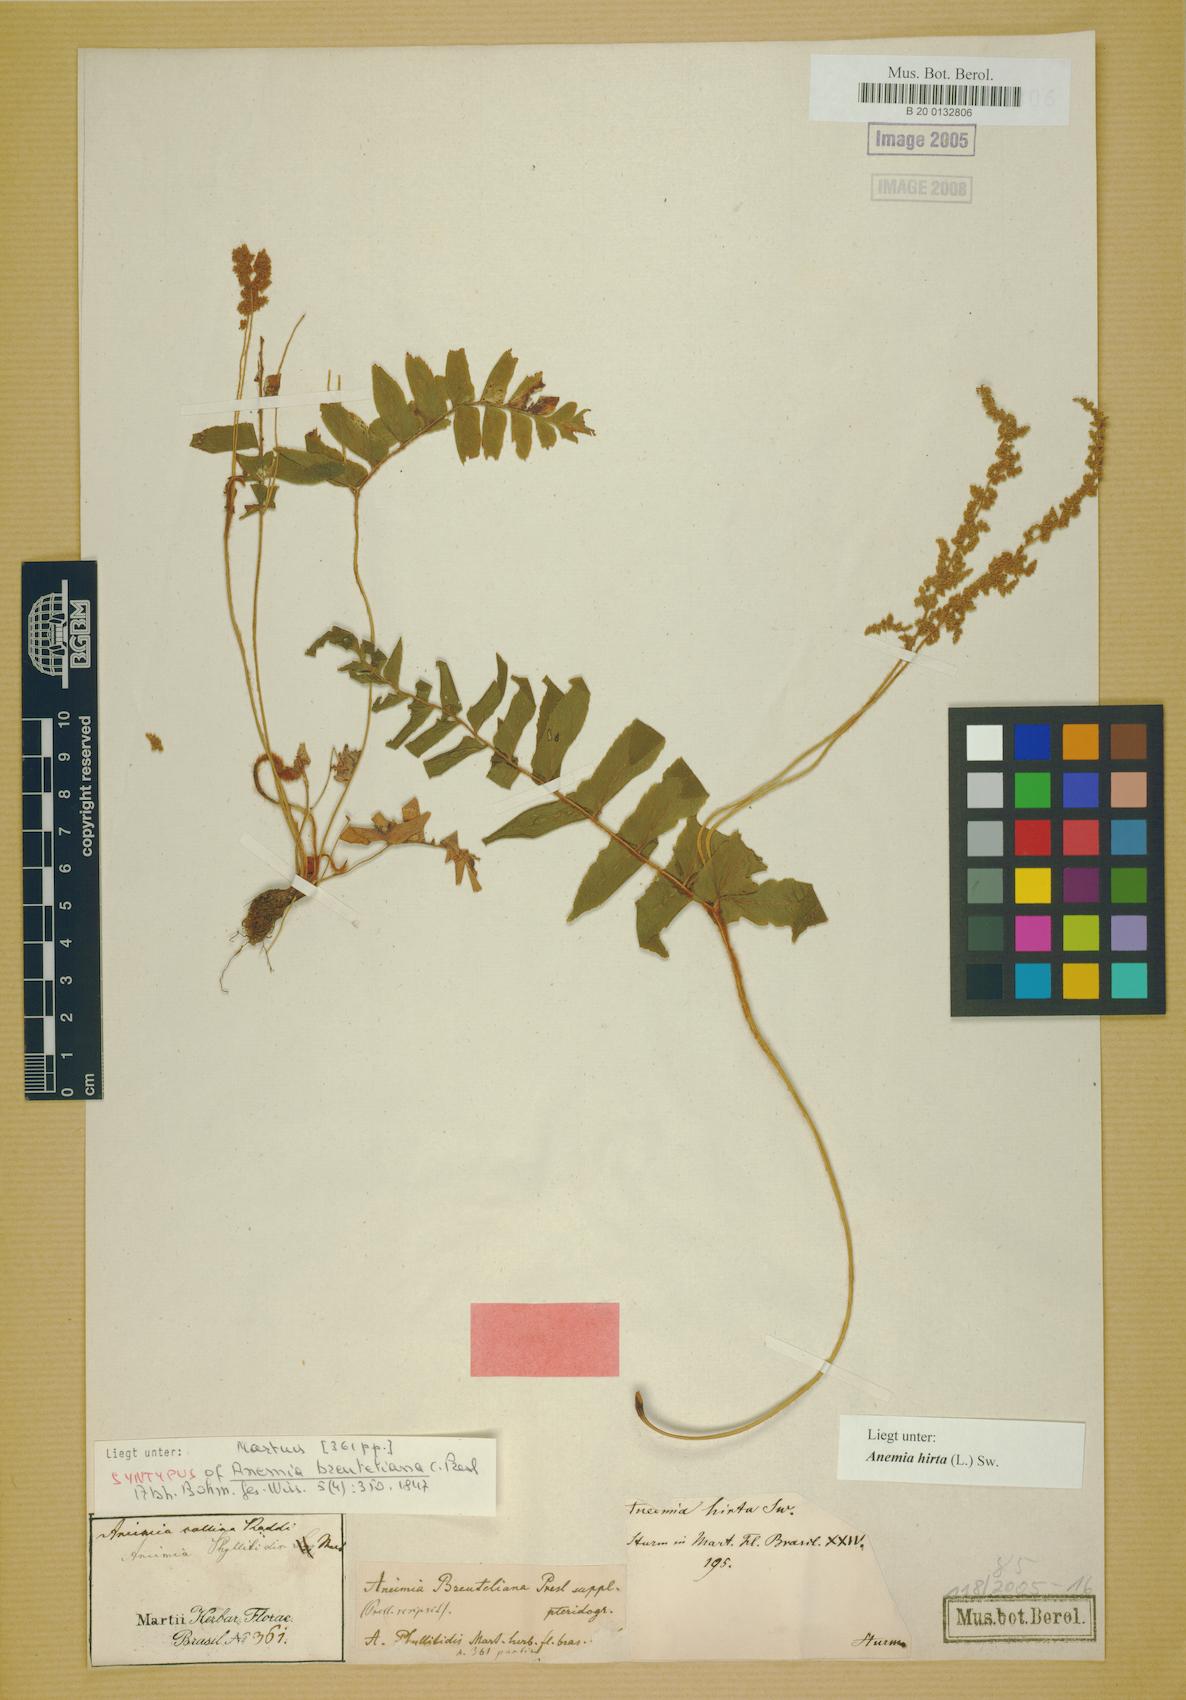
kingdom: Plantae
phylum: Tracheophyta
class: Polypodiopsida
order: Schizaeales
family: Anemiaceae
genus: Anemia
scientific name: Anemia hirta
